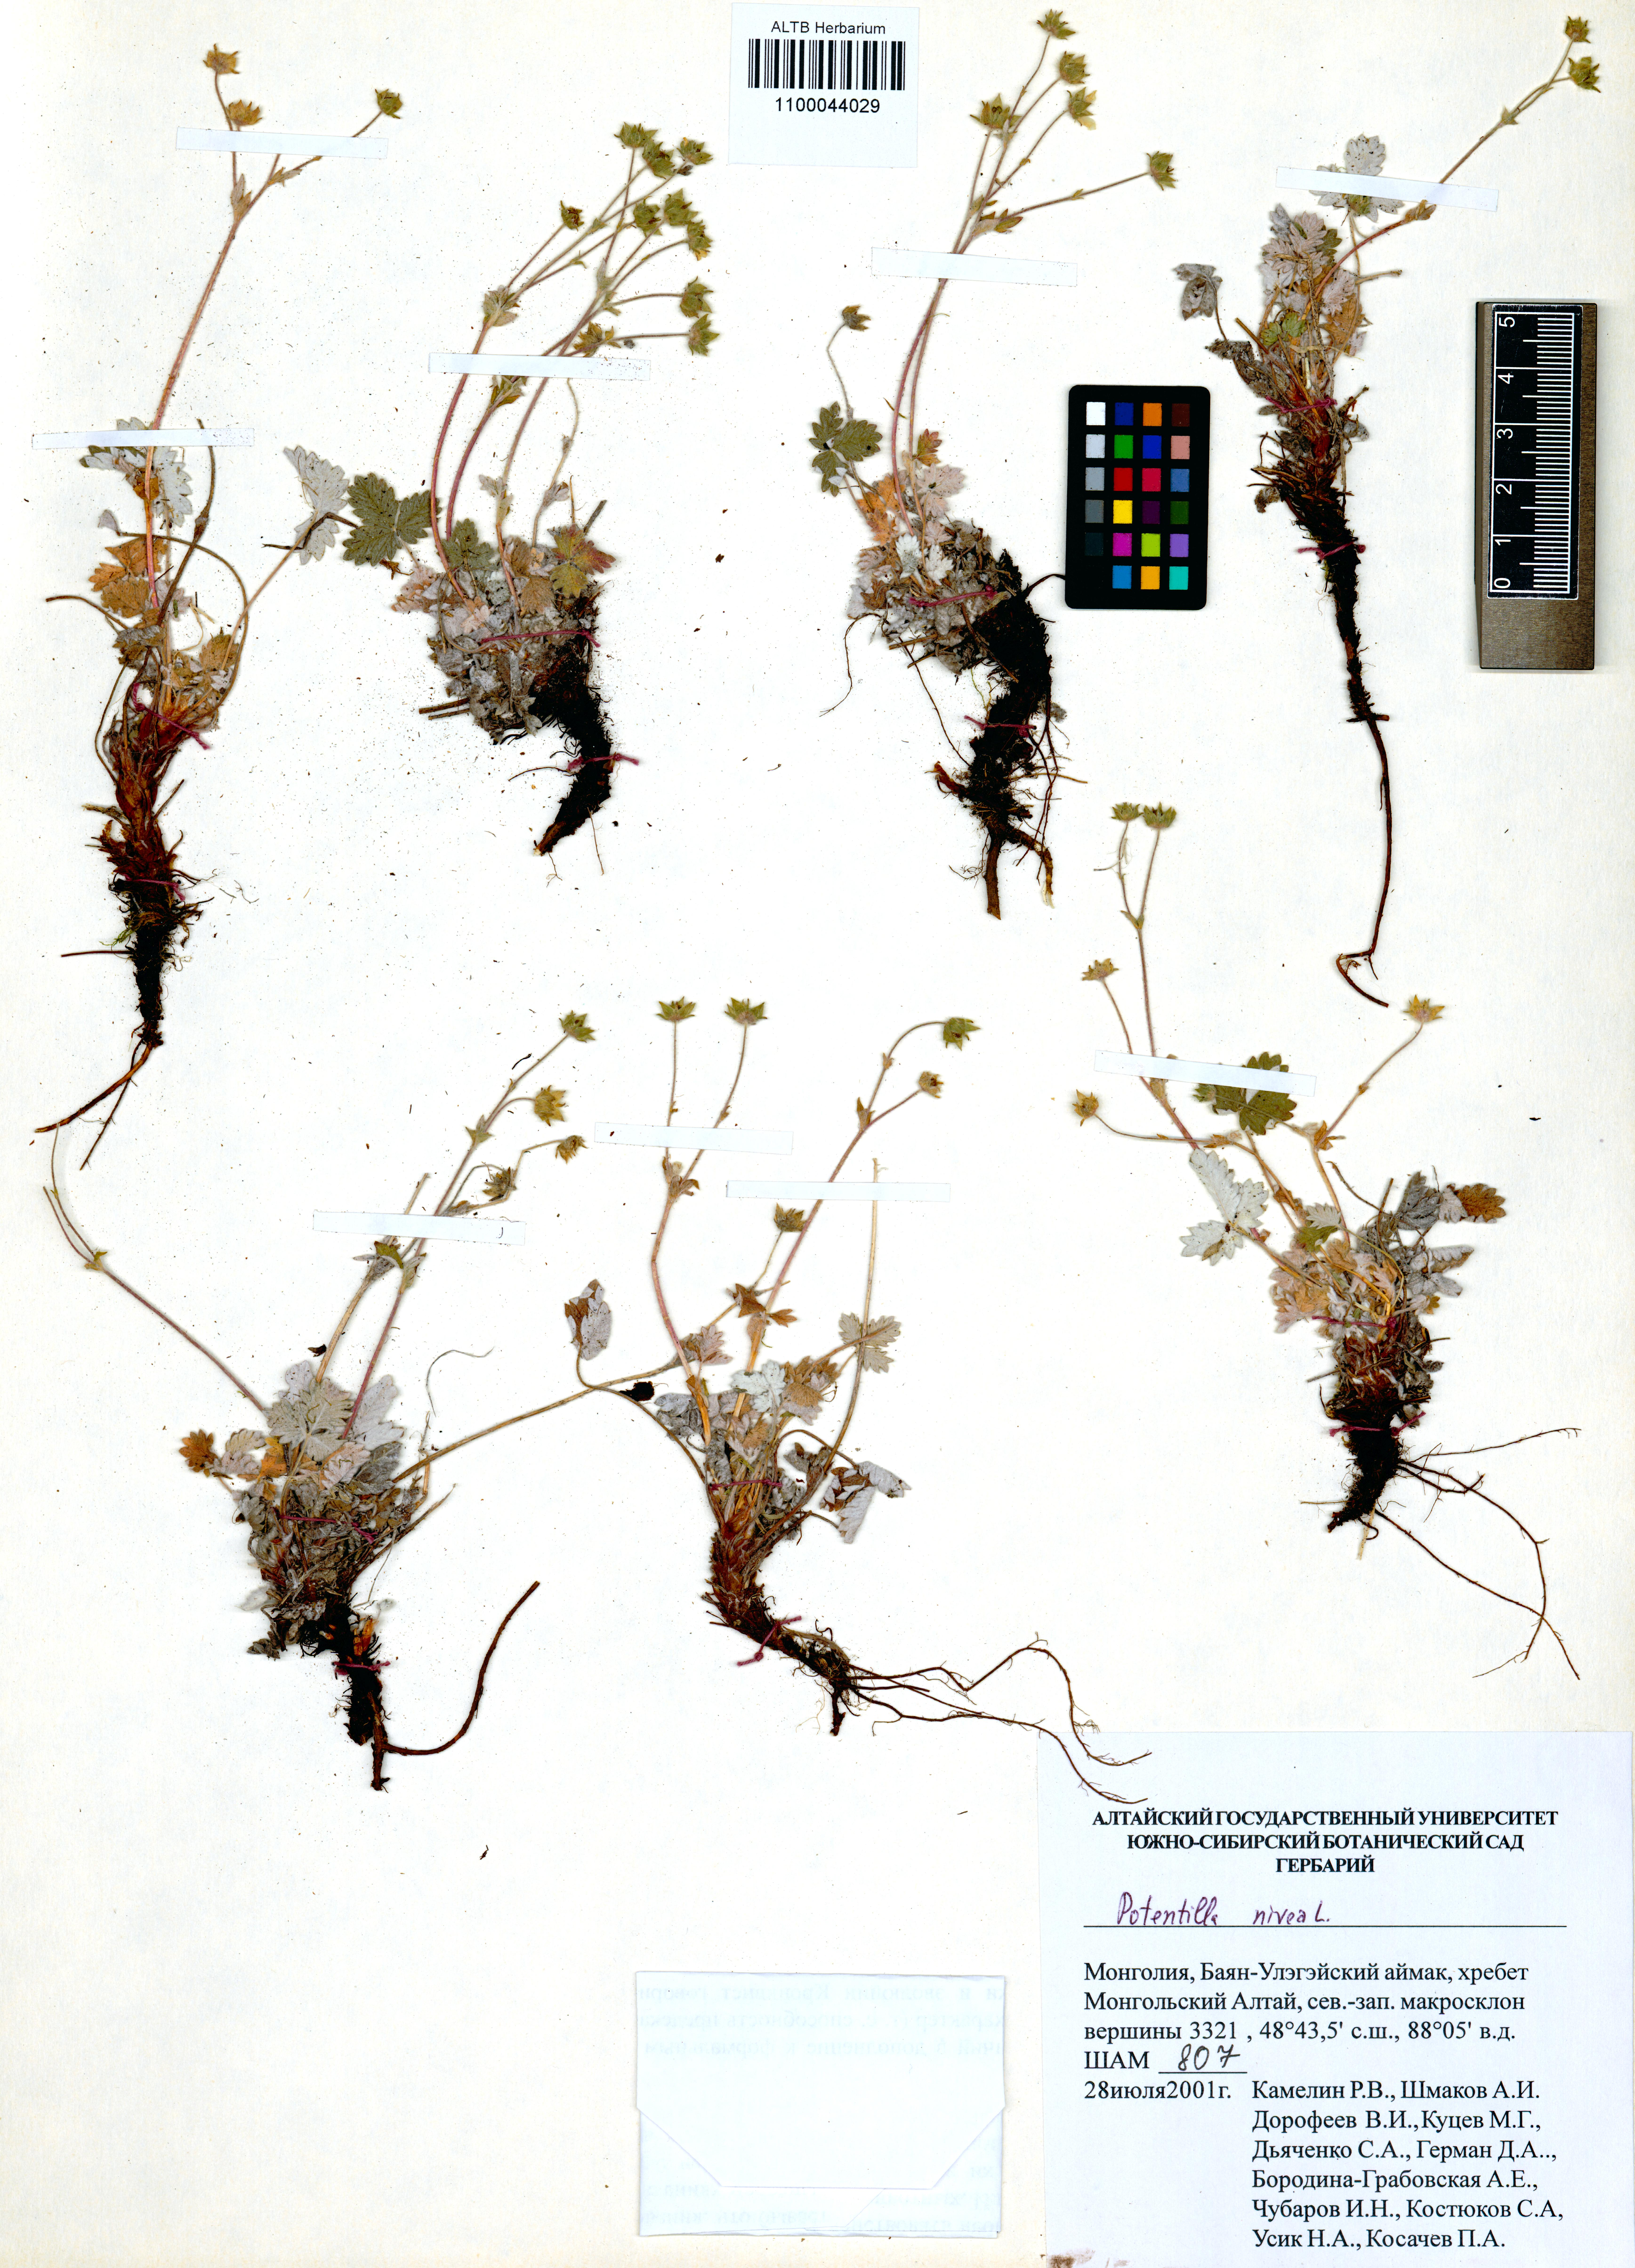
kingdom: Plantae
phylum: Tracheophyta
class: Magnoliopsida
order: Rosales
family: Rosaceae
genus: Potentilla
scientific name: Potentilla nivea
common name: Snow cinquefoil
